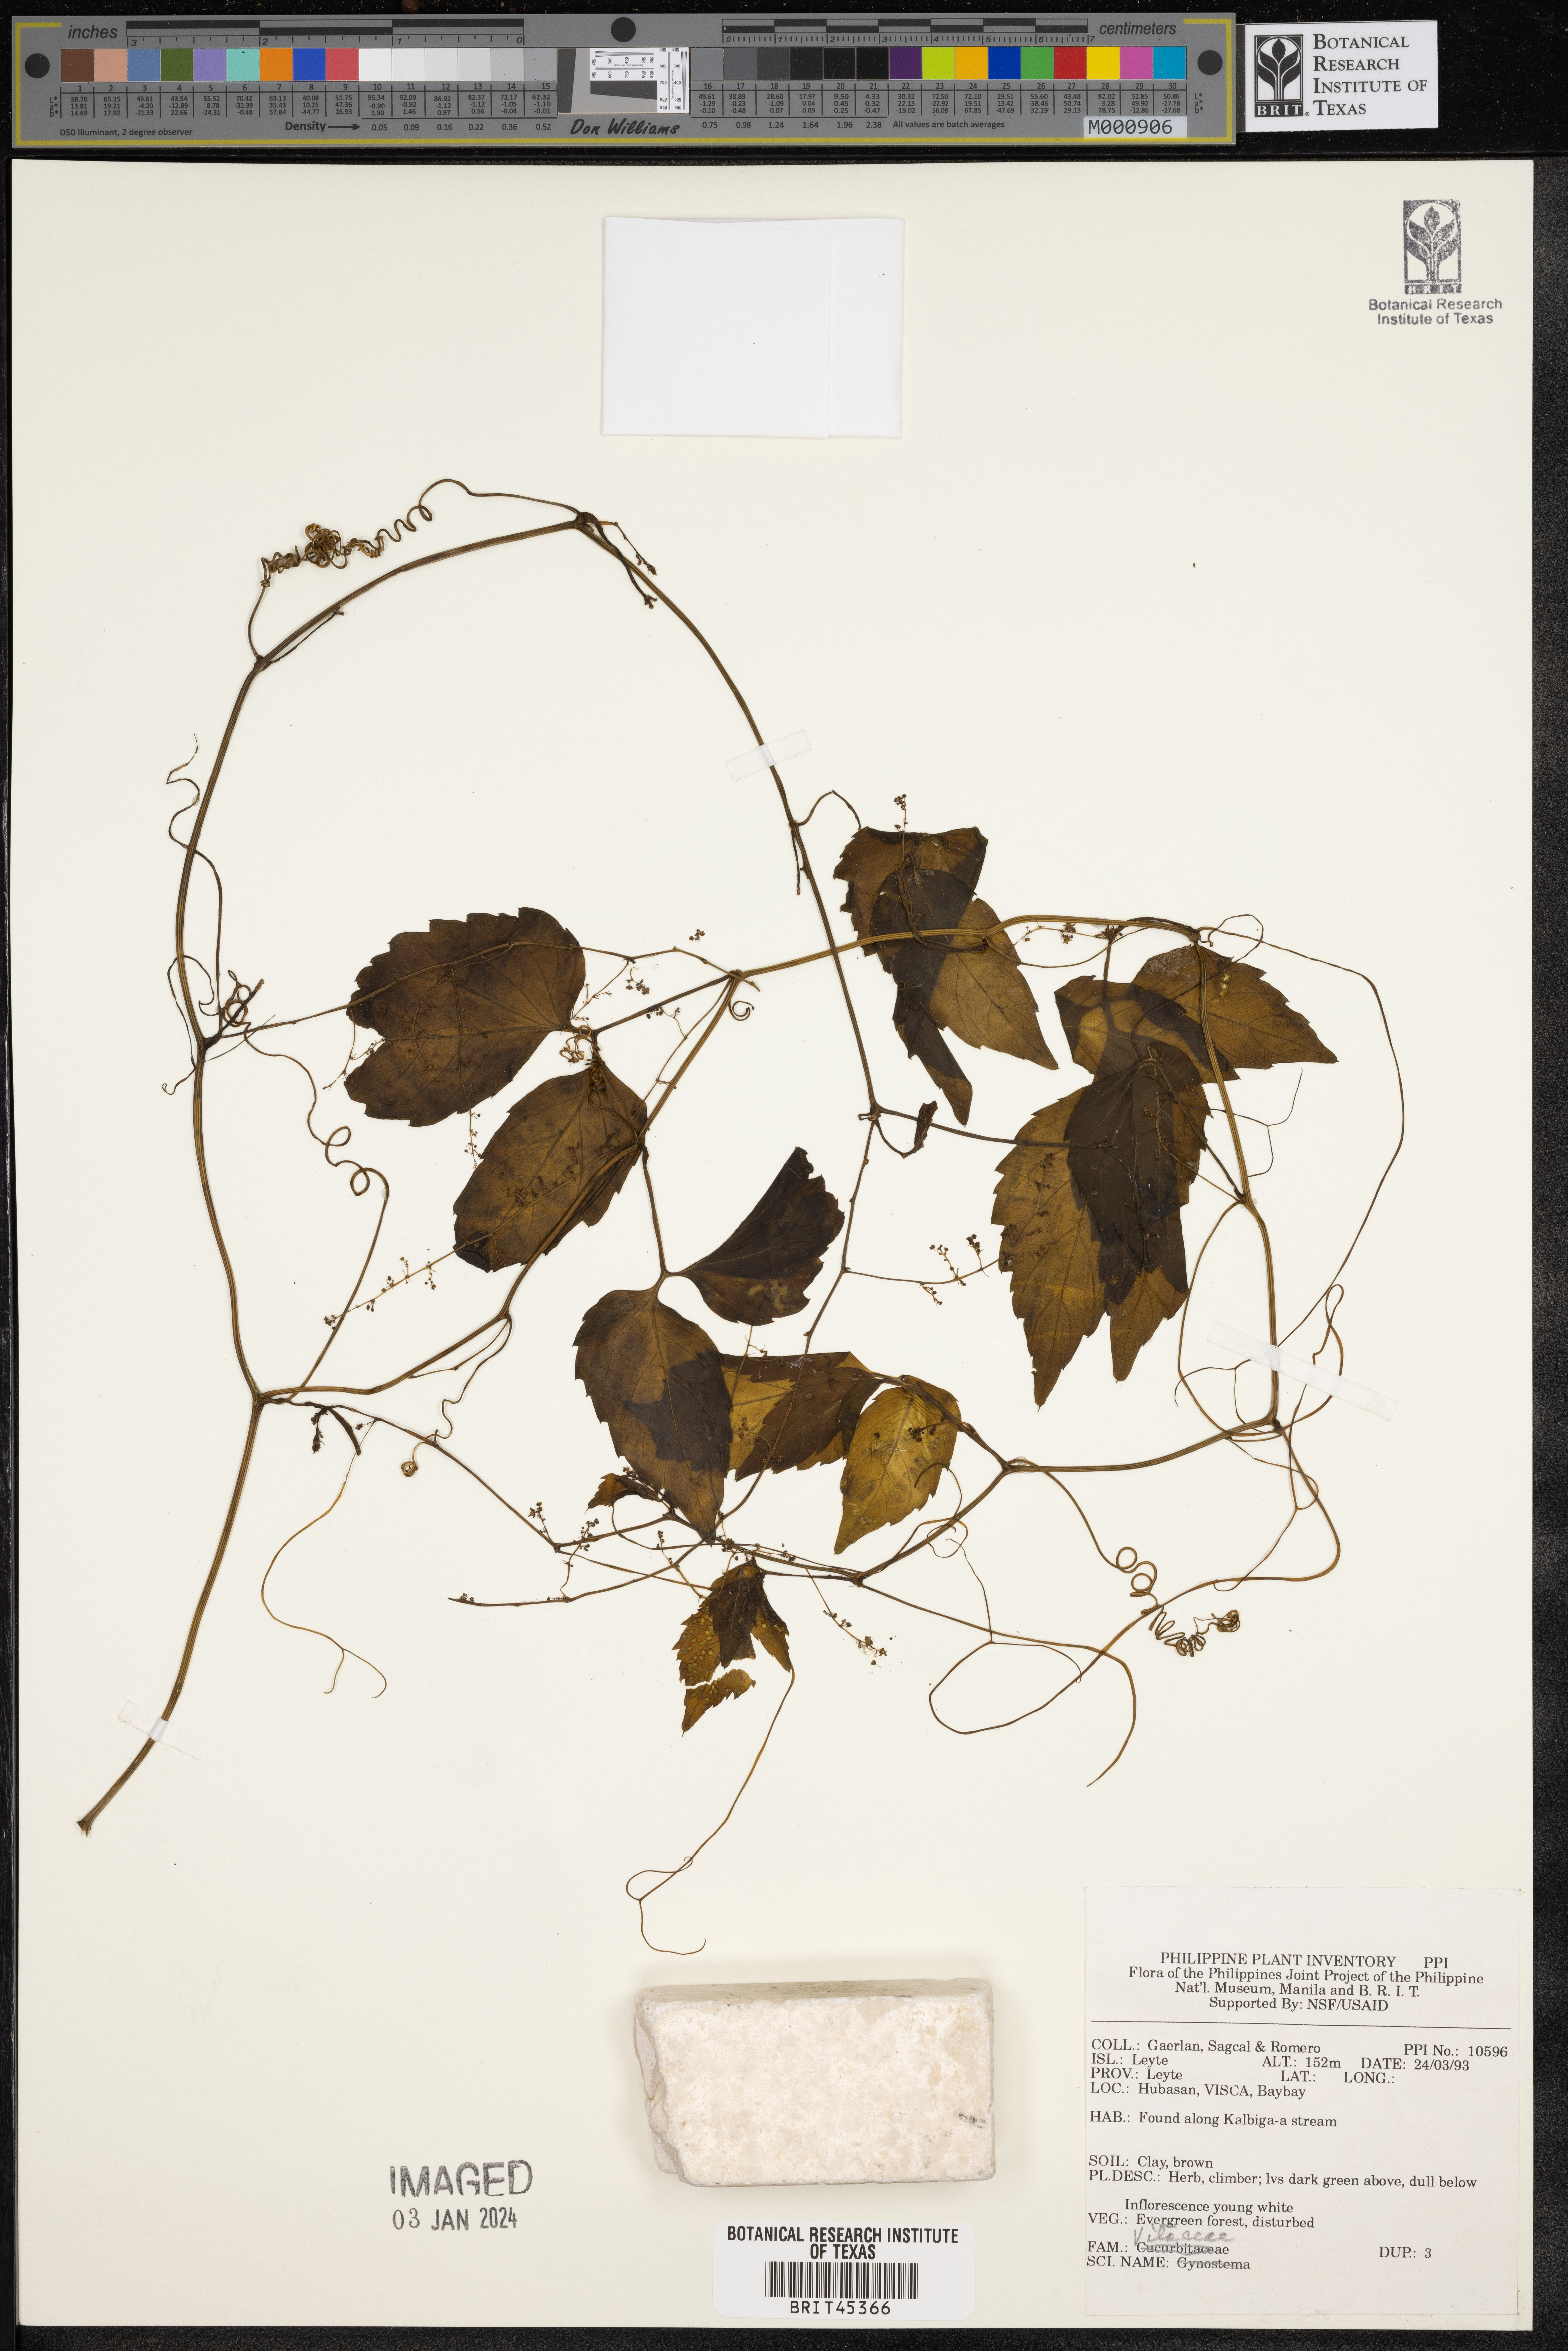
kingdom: Plantae
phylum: Tracheophyta
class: Magnoliopsida
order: Vitales
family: Vitaceae
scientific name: Vitaceae
